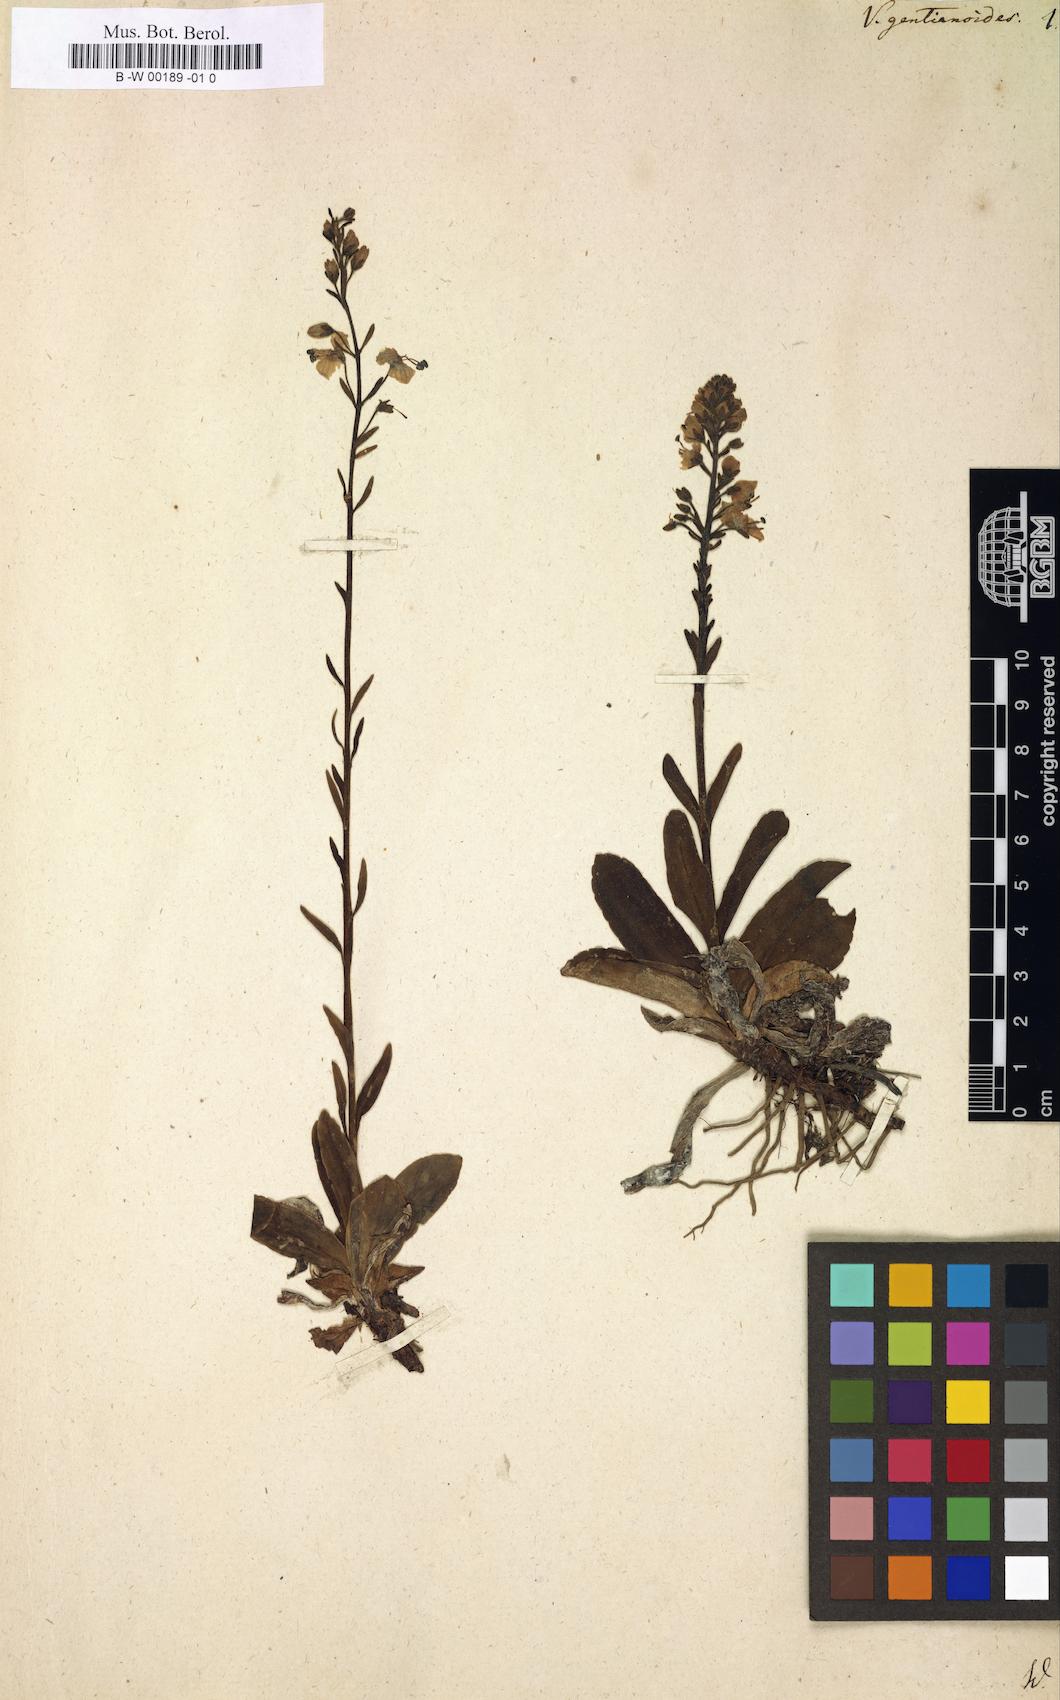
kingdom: Plantae
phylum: Tracheophyta
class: Magnoliopsida
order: Lamiales
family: Plantaginaceae
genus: Veronica
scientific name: Veronica gentianoides
